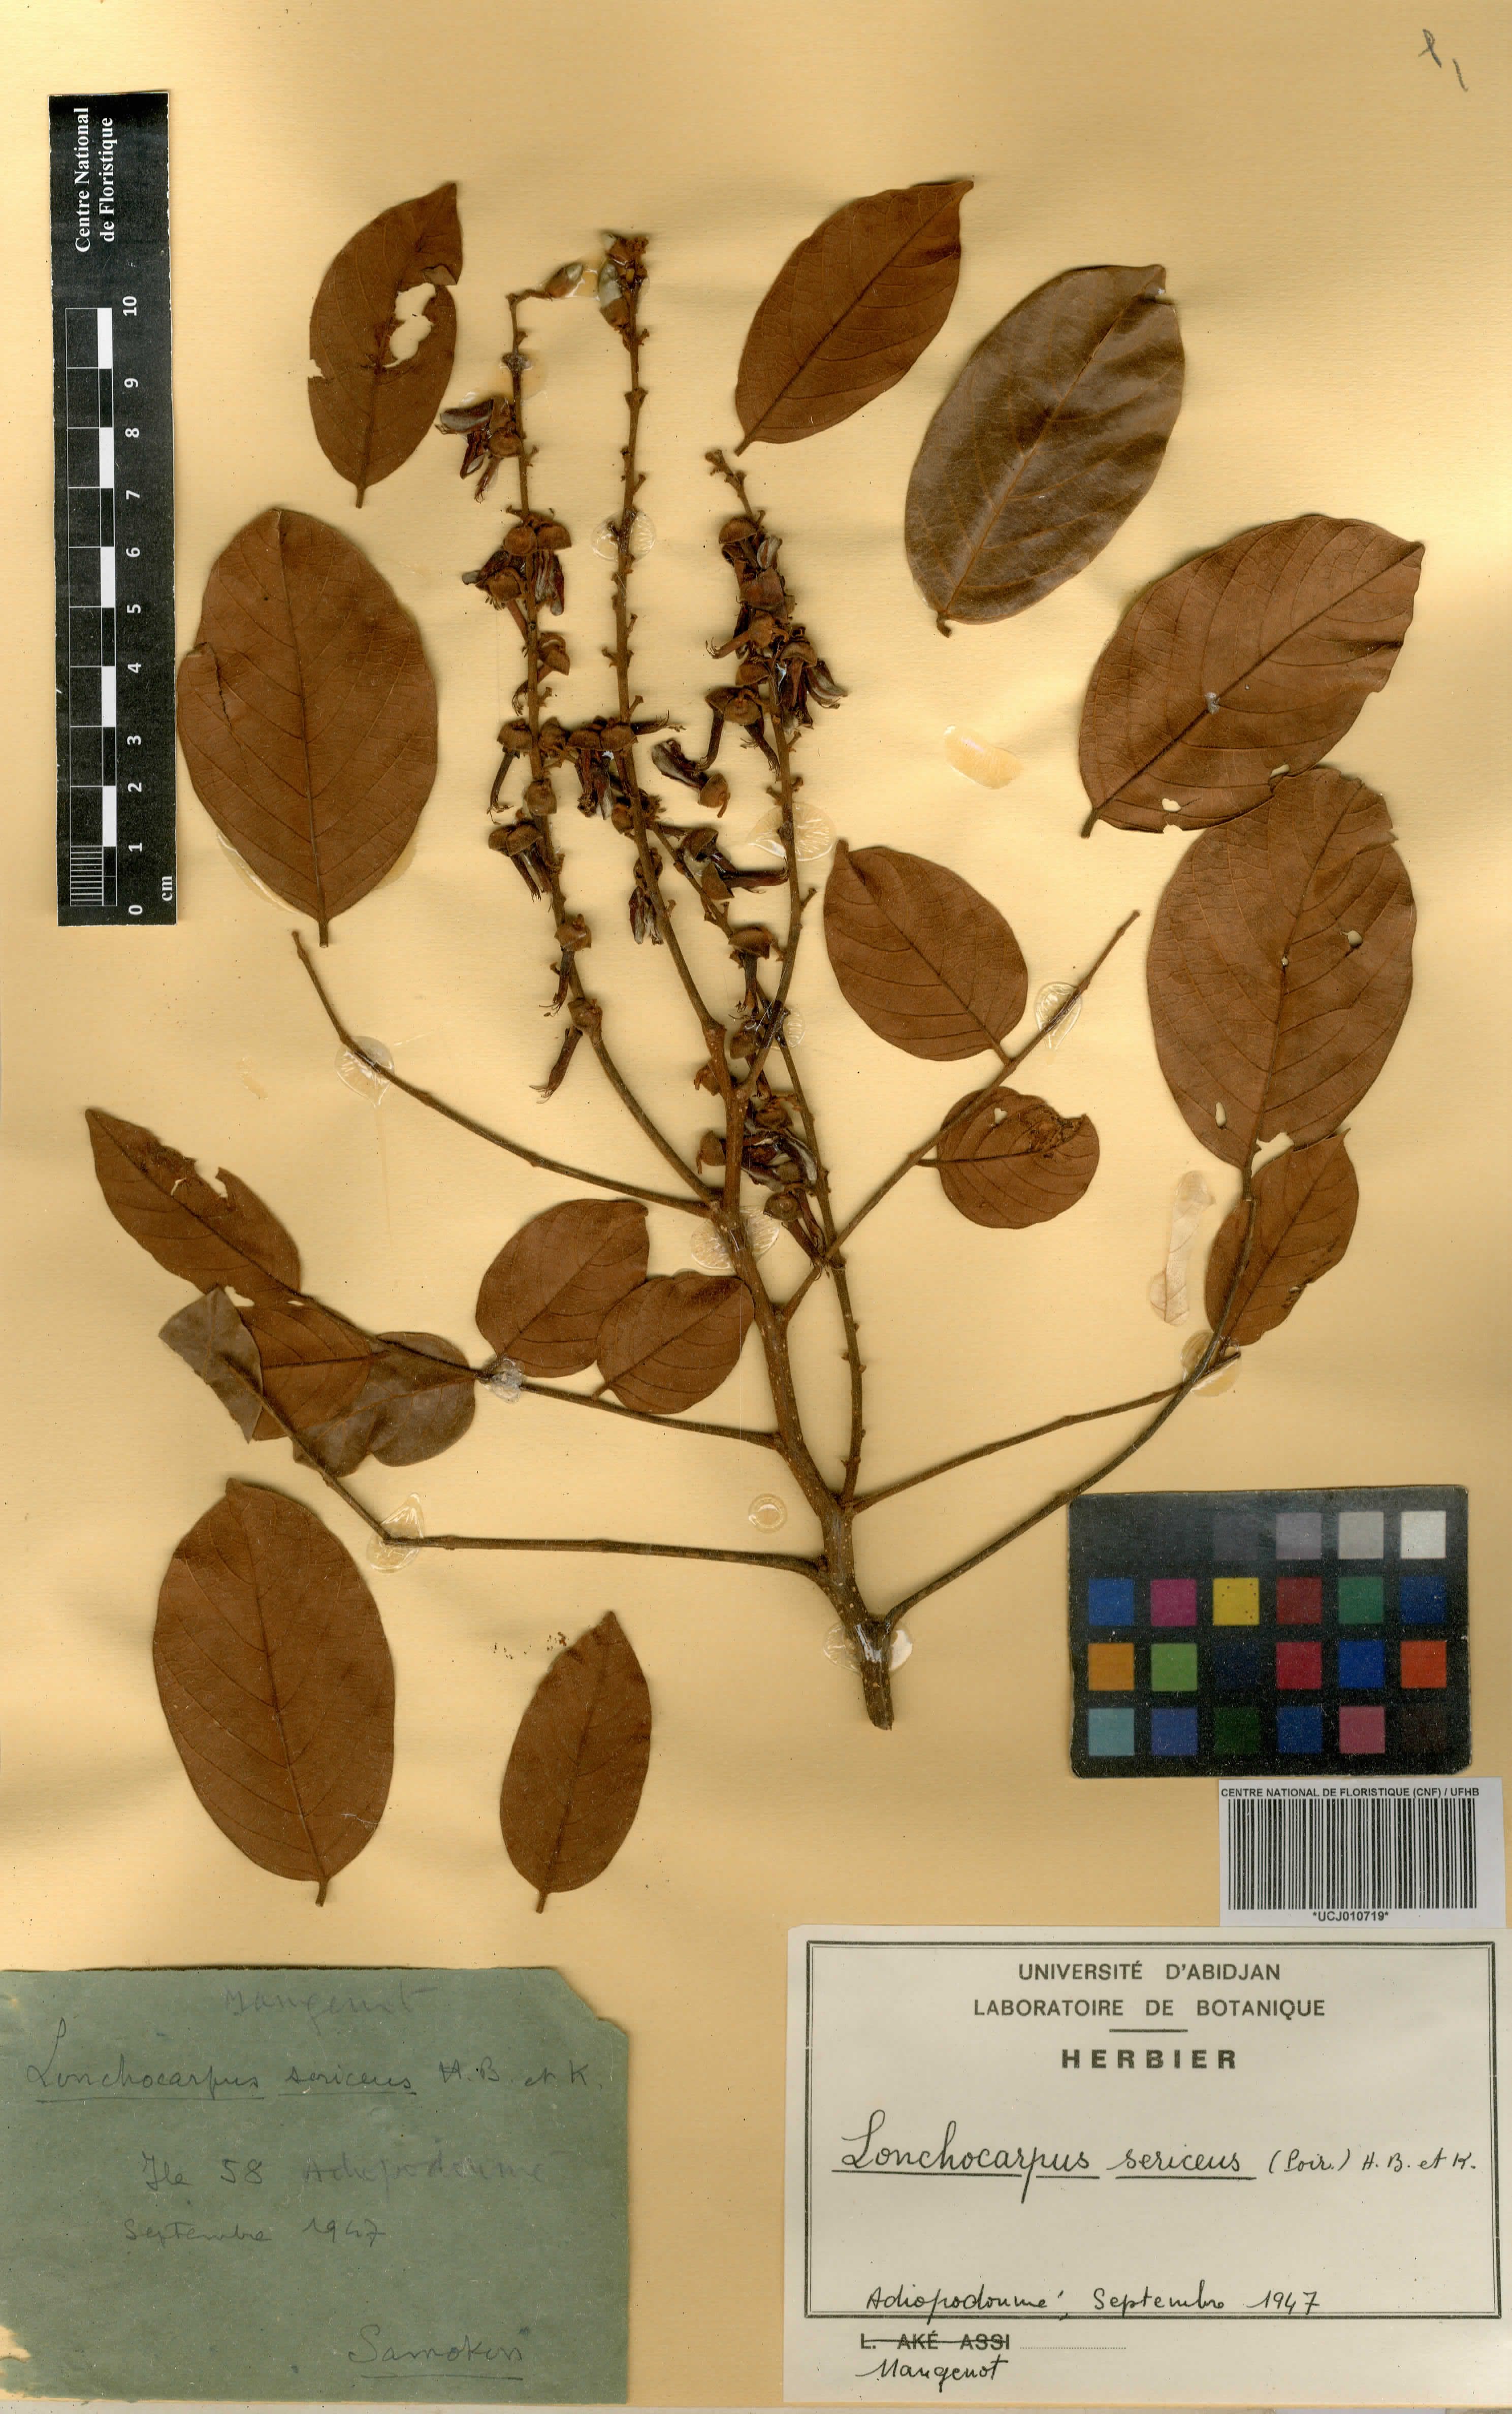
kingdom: Plantae
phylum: Tracheophyta
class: Magnoliopsida
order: Fabales
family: Fabaceae
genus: Lonchocarpus
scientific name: Lonchocarpus sericeus
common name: Savonette
